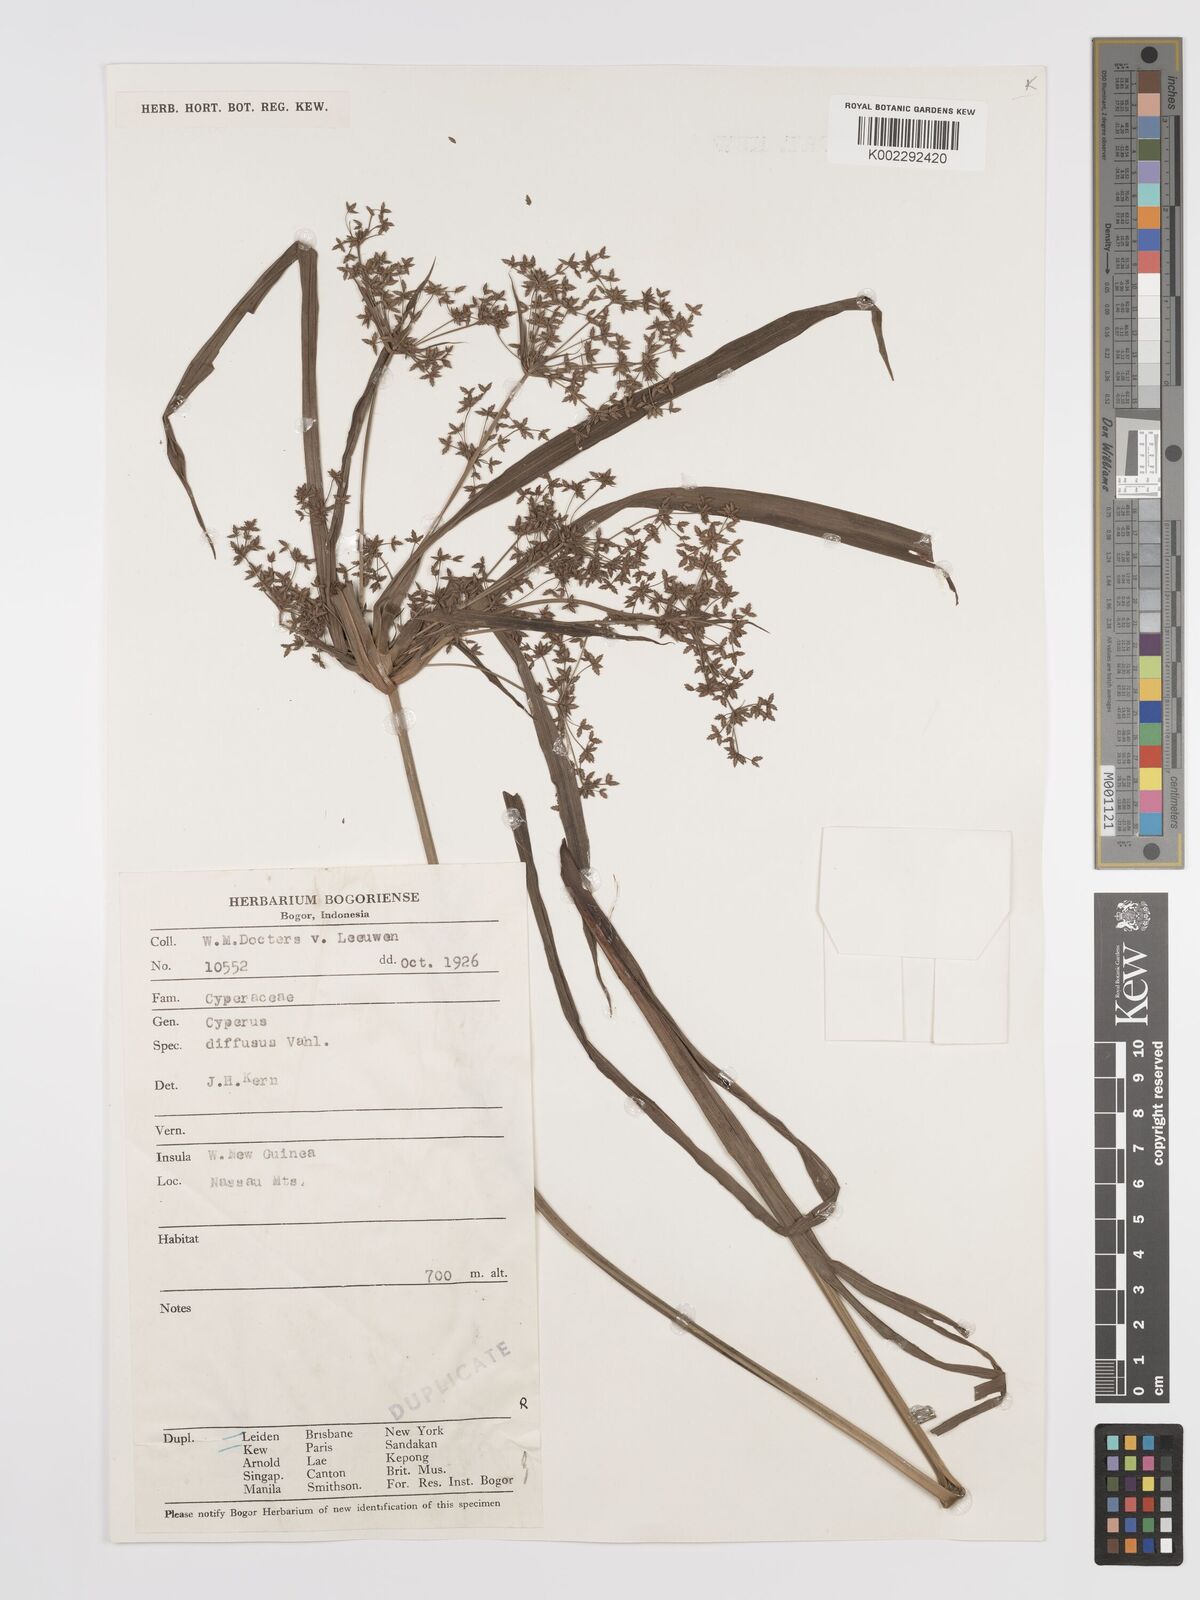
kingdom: Plantae
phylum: Tracheophyta
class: Liliopsida
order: Poales
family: Cyperaceae
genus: Cyperus
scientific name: Cyperus diffusus
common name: Dwarf umbrella grass
